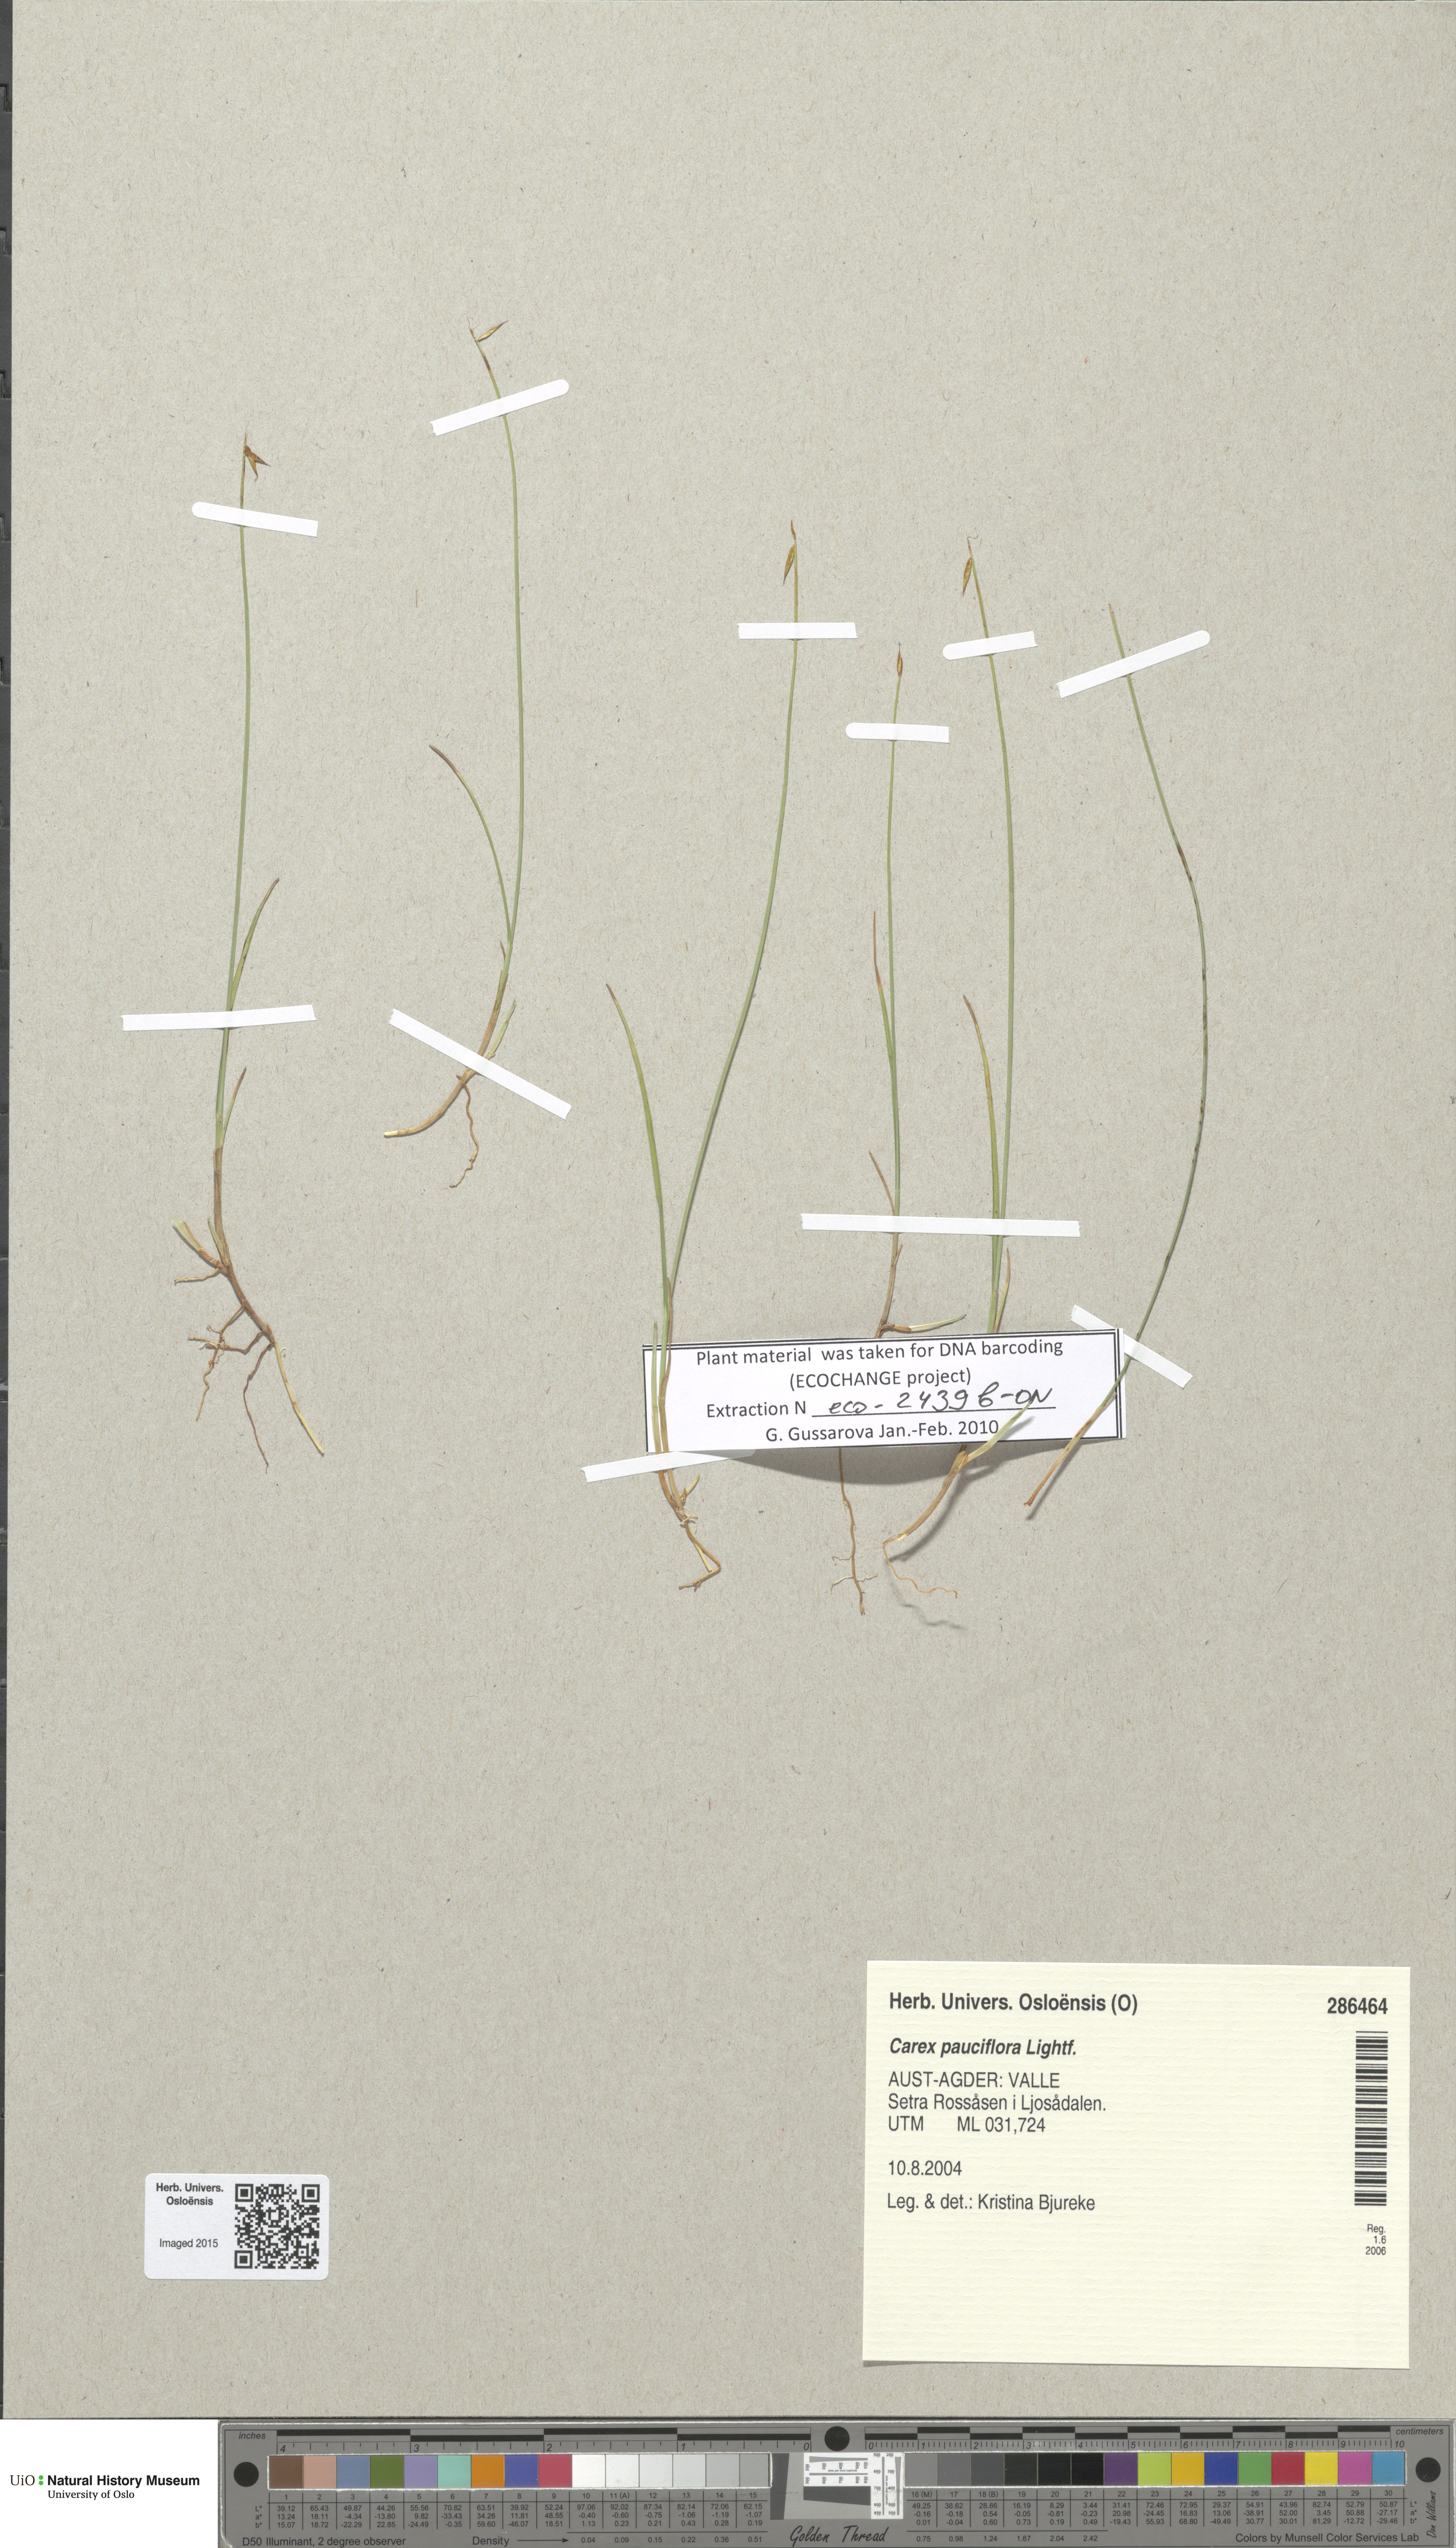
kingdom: Plantae
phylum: Tracheophyta
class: Liliopsida
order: Poales
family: Cyperaceae
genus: Carex
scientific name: Carex pauciflora
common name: Few-flowered sedge
